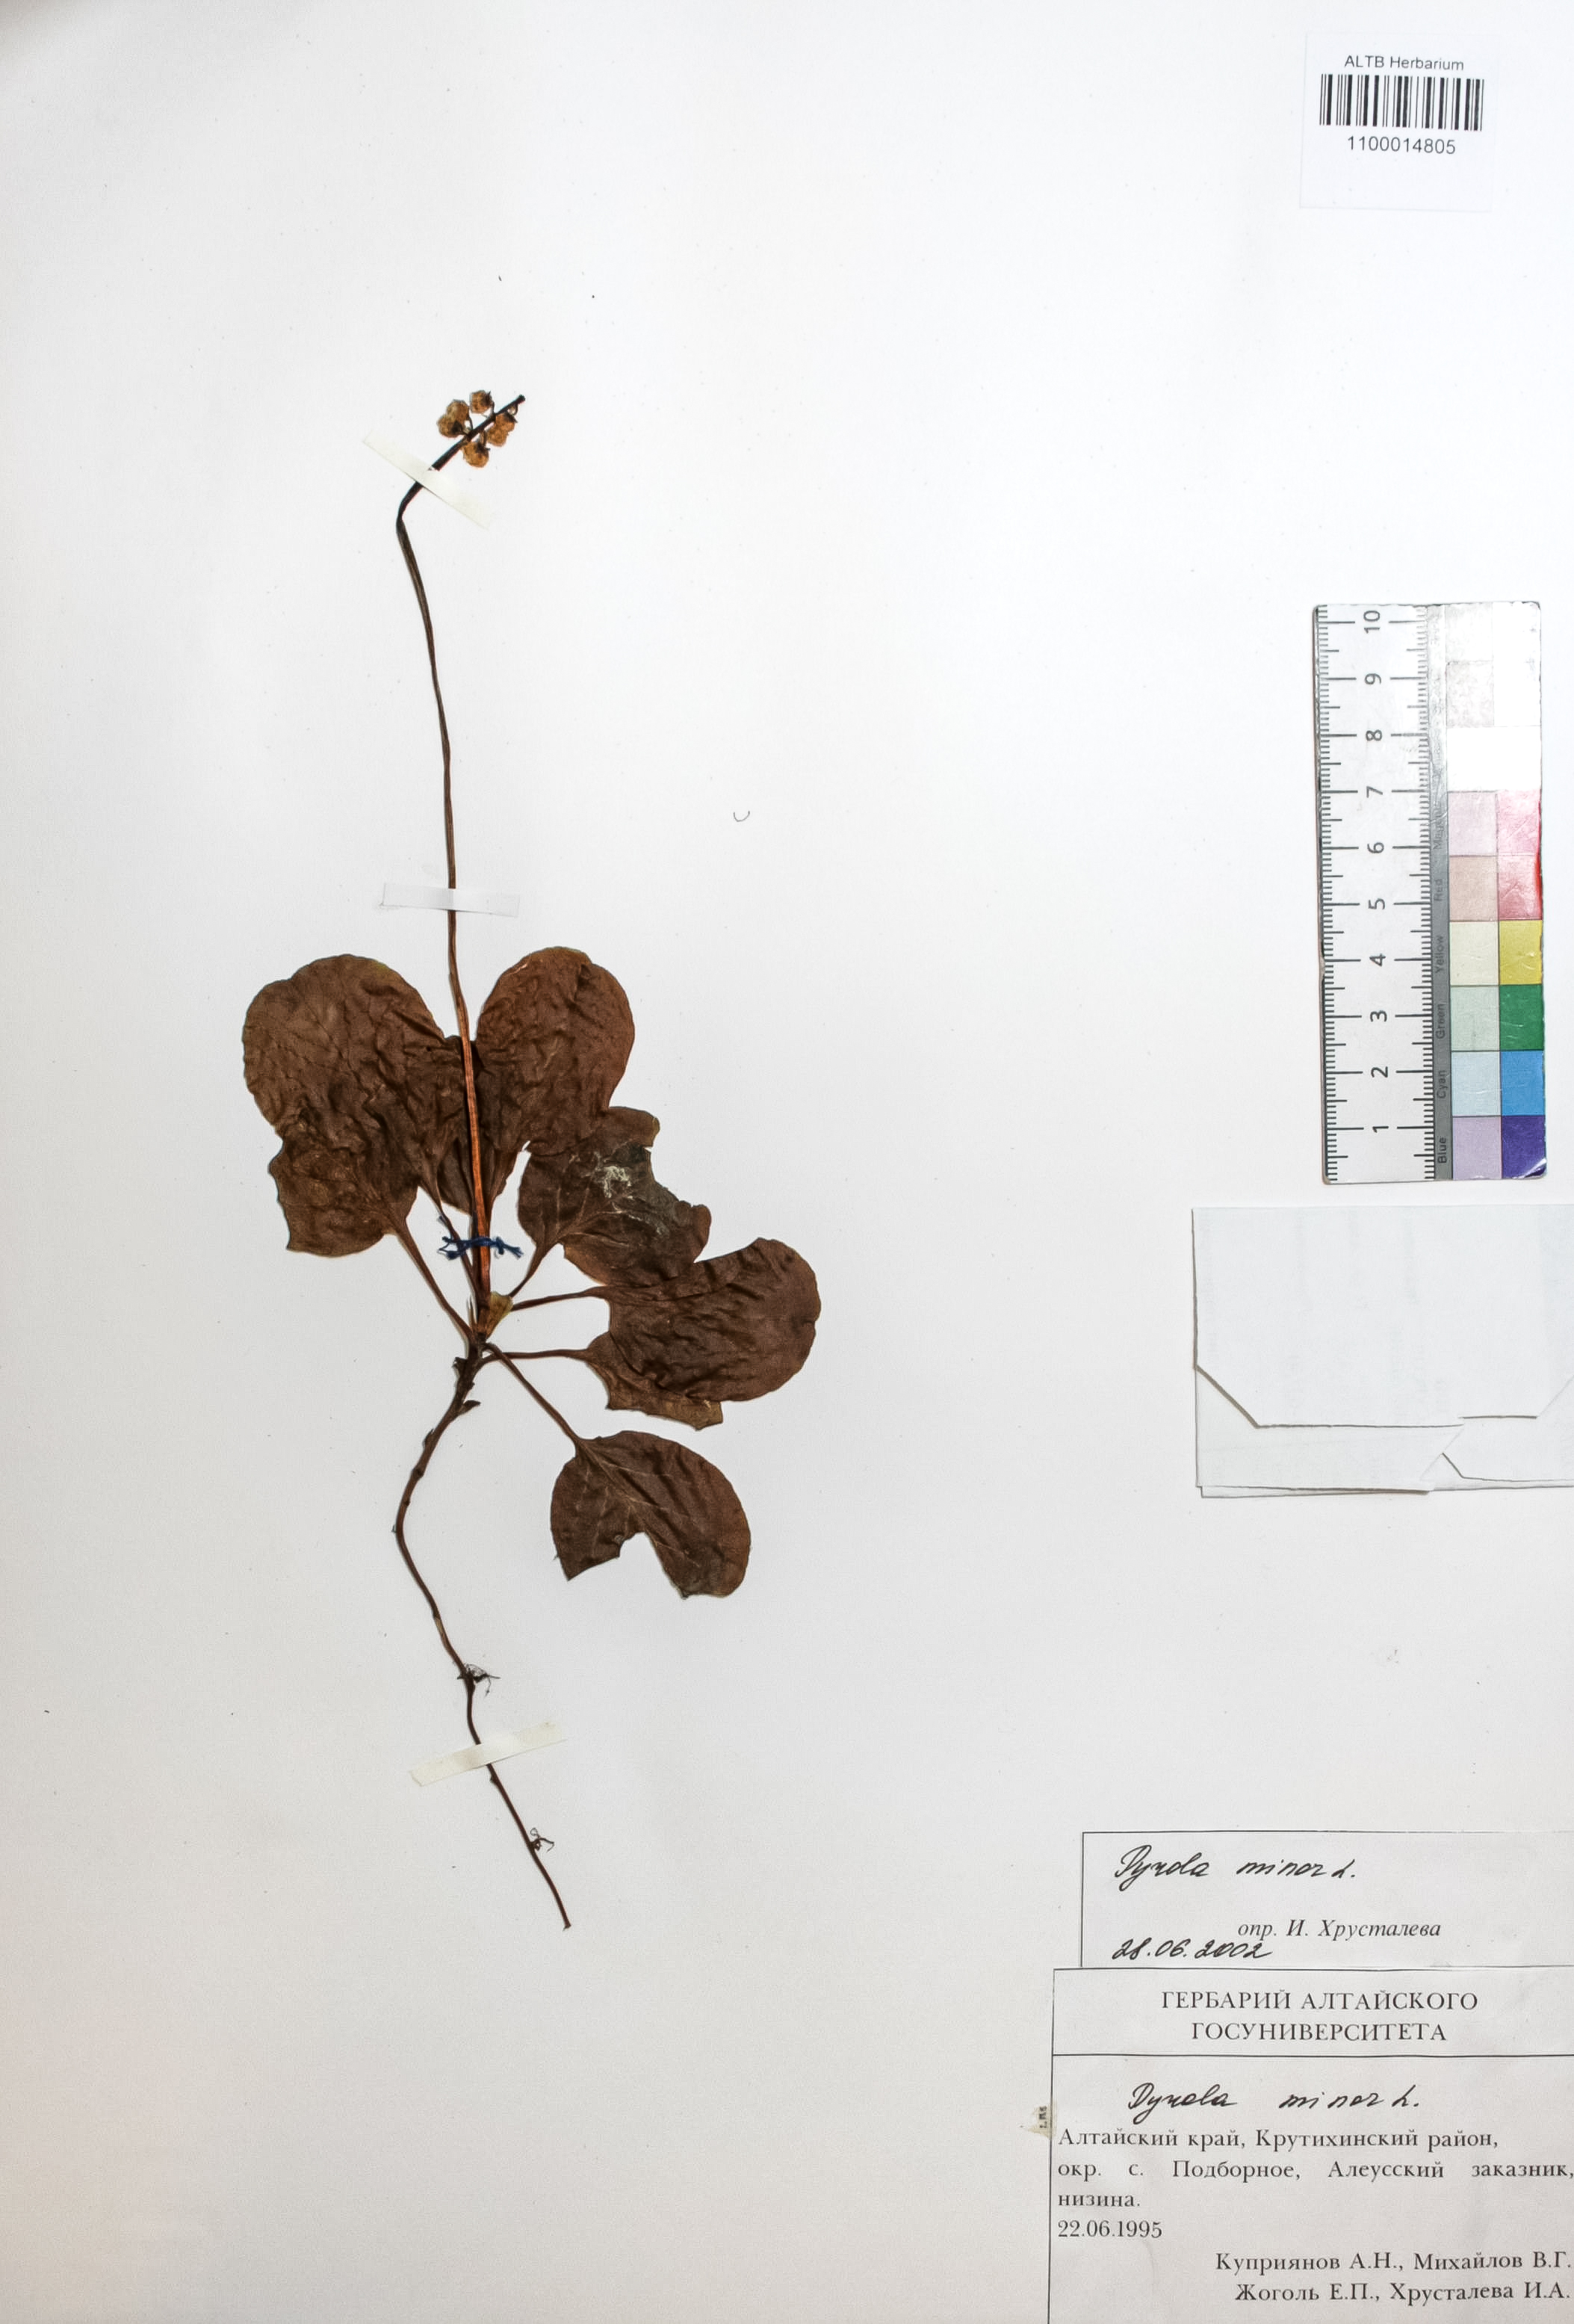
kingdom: Plantae
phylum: Tracheophyta
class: Magnoliopsida
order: Ericales
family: Ericaceae
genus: Pyrola
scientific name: Pyrola minor
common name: Common wintergreen
